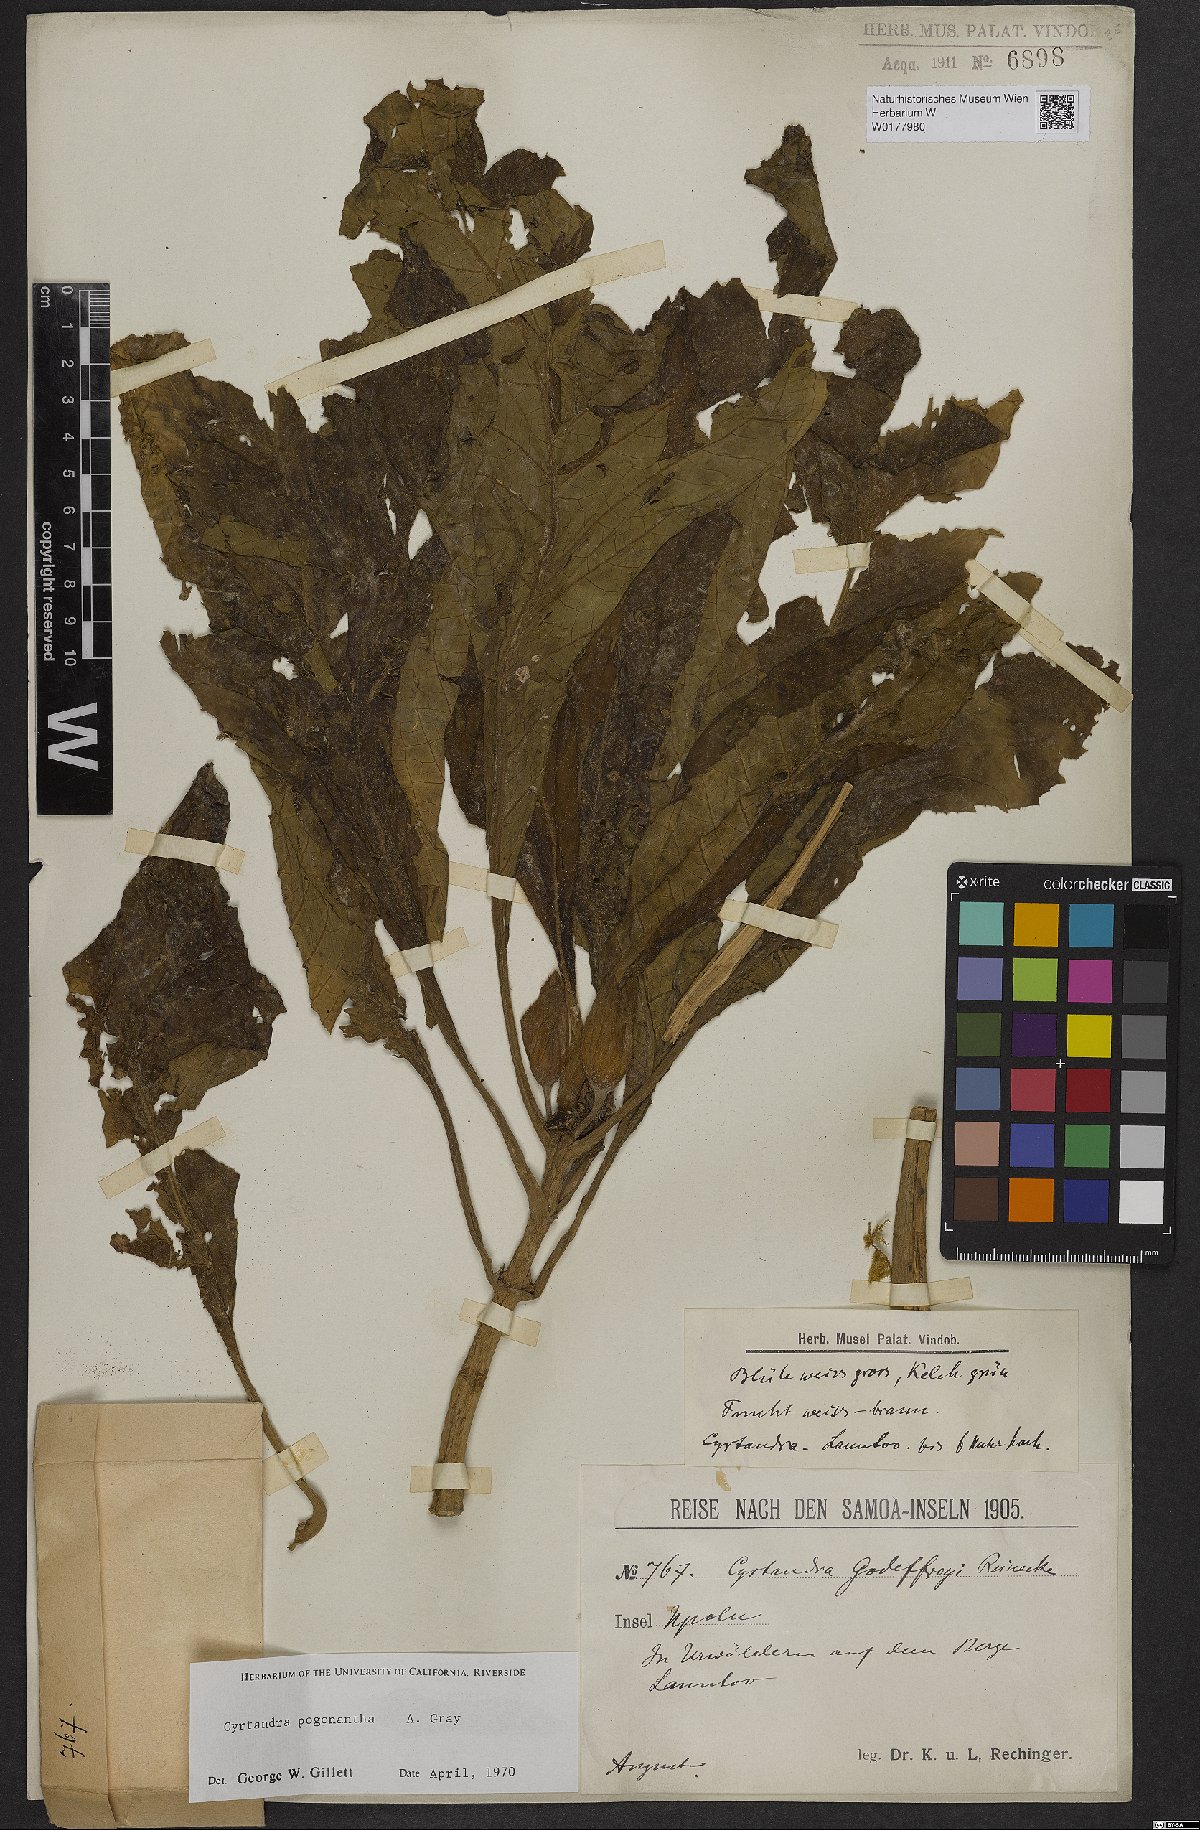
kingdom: Plantae
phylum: Tracheophyta
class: Magnoliopsida
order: Lamiales
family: Gesneriaceae
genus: Cyrtandra
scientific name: Cyrtandra pogonantha
